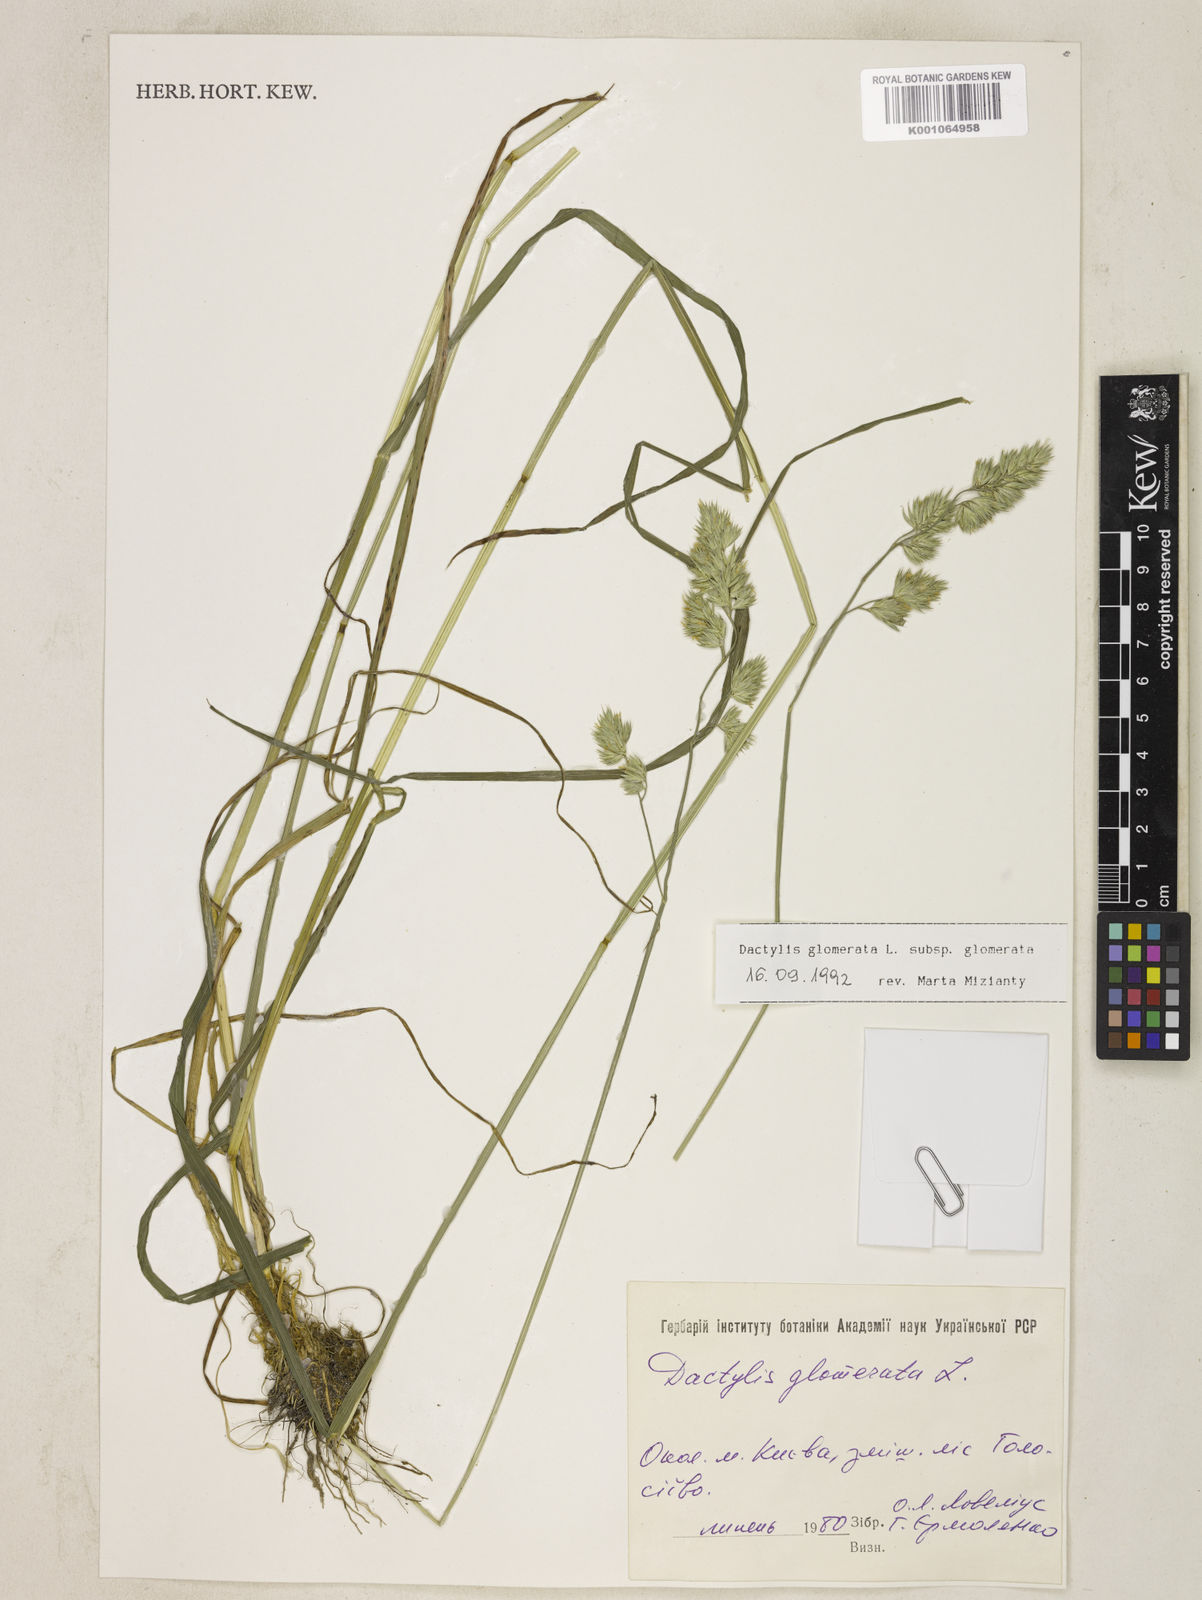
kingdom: Plantae
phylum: Tracheophyta
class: Liliopsida
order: Poales
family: Poaceae
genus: Dactylis
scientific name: Dactylis glomerata
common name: Orchardgrass
